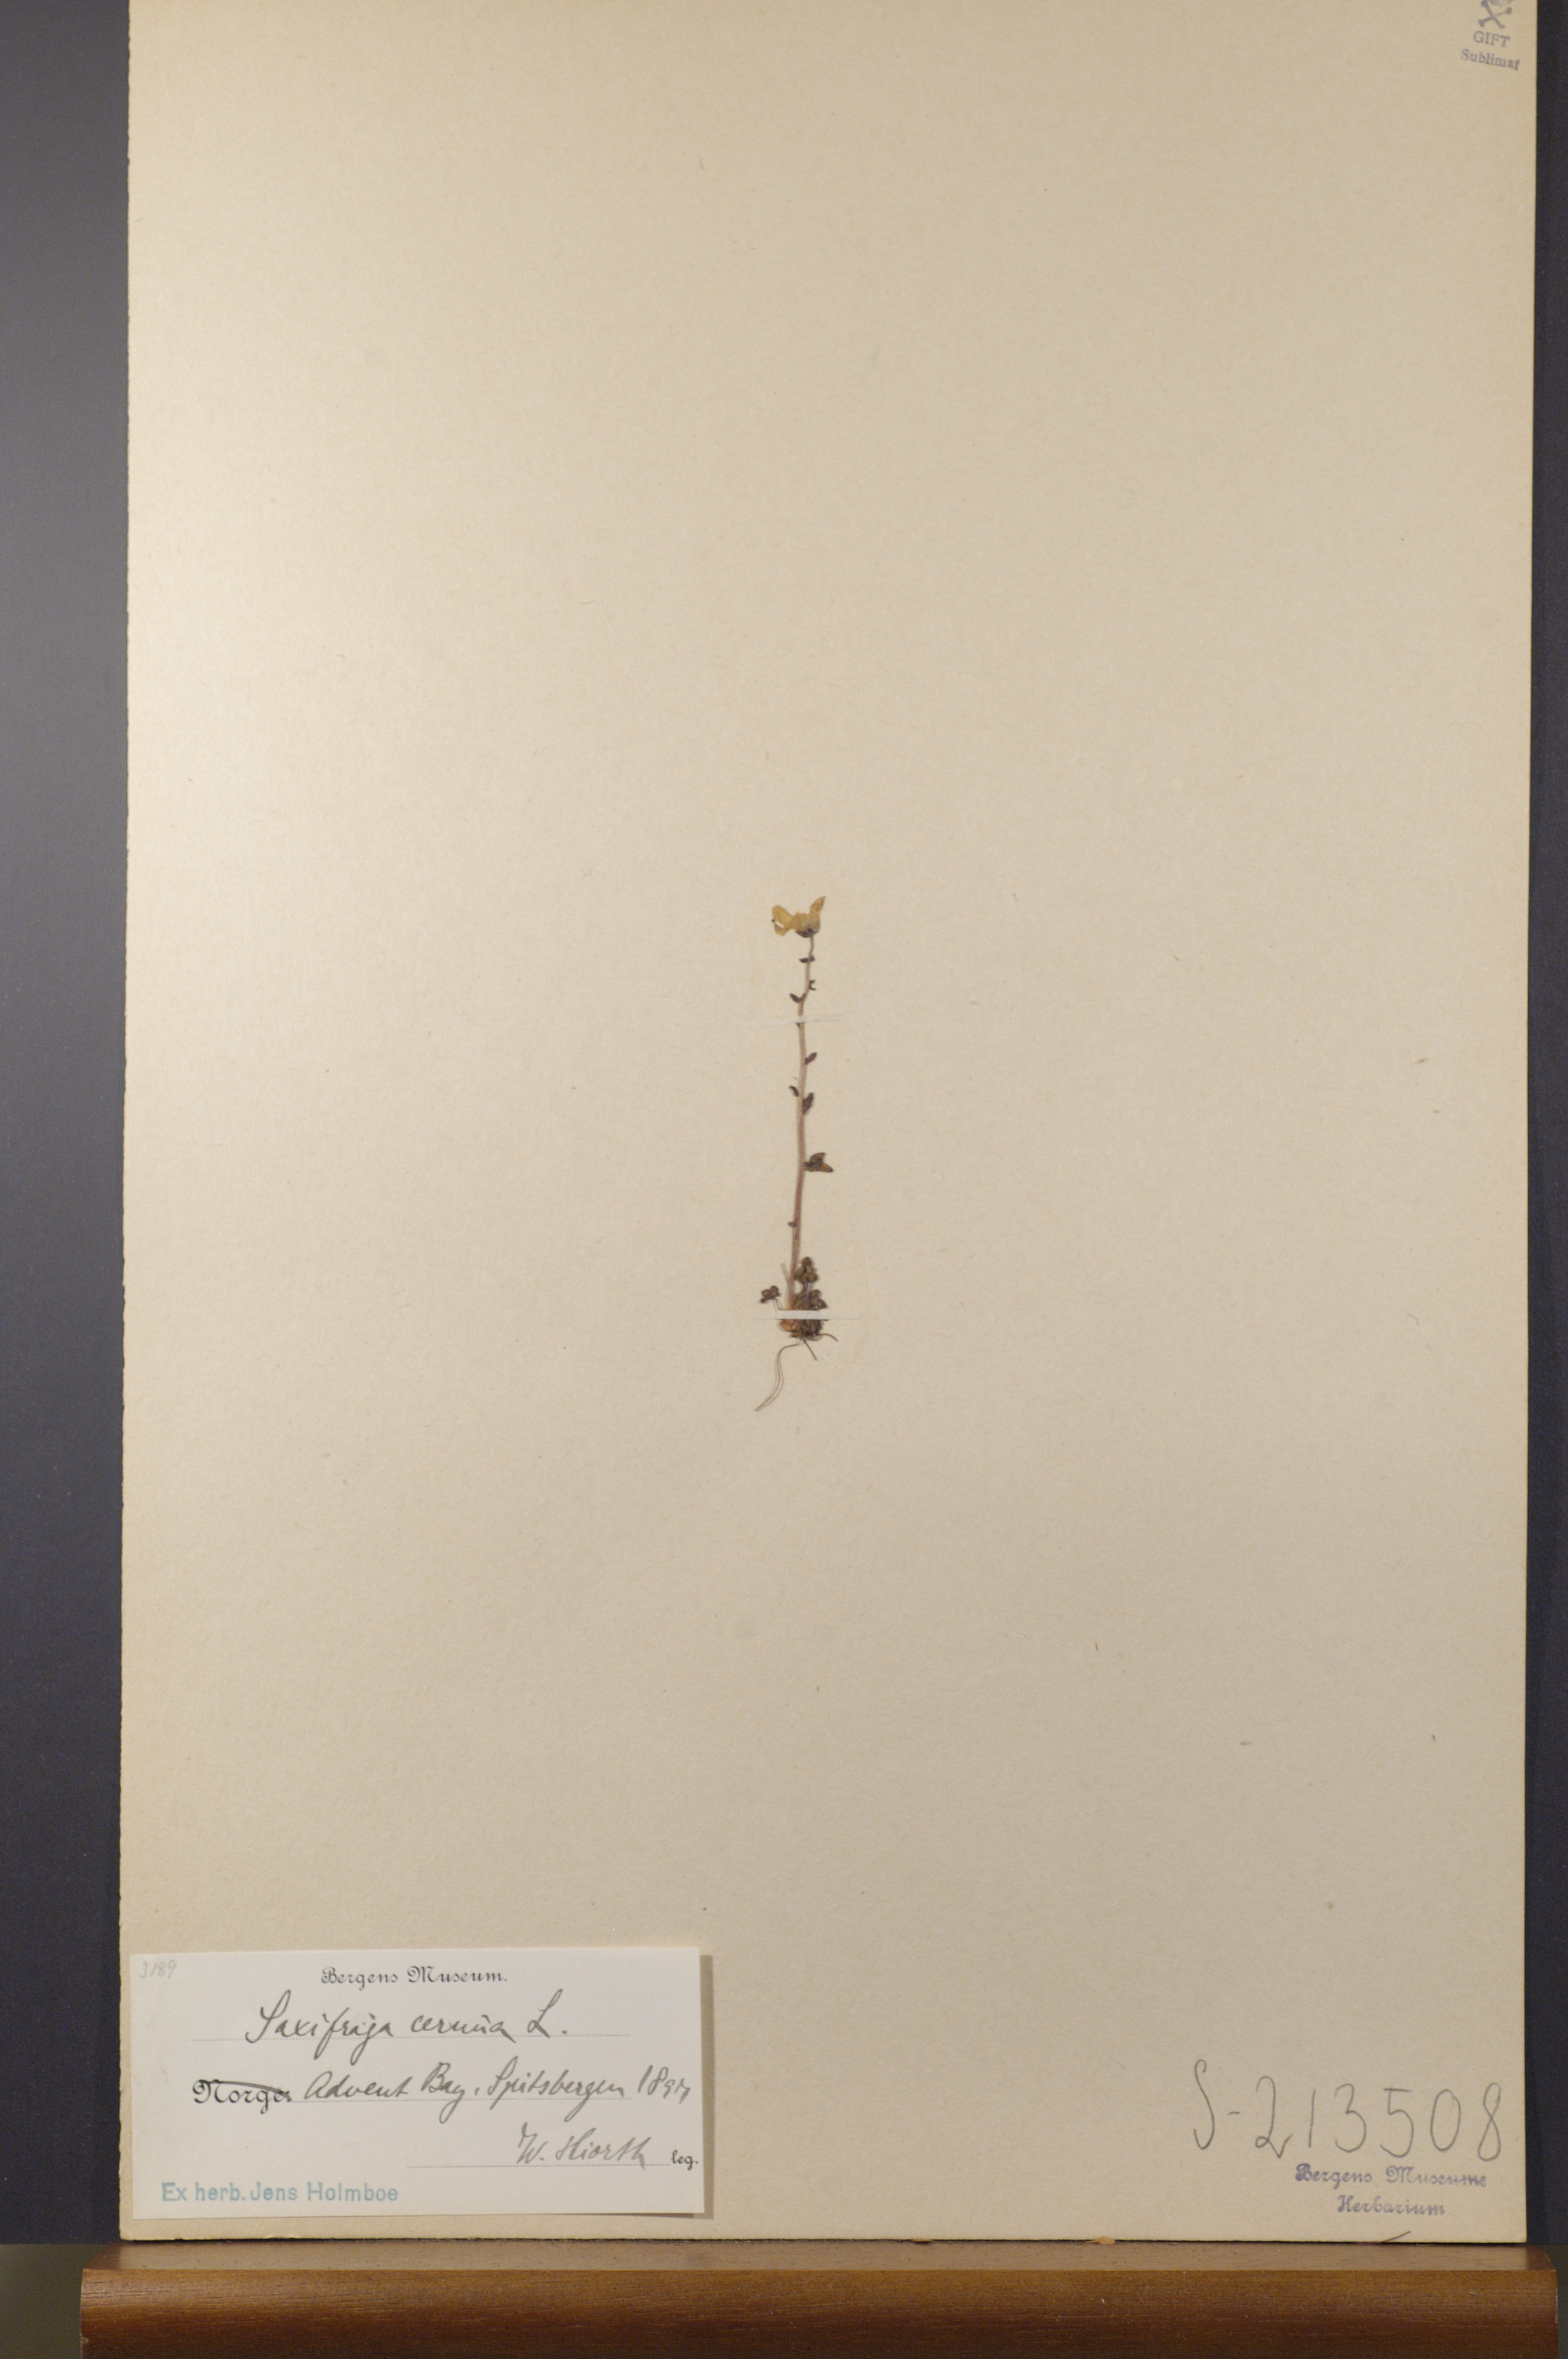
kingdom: Plantae
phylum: Tracheophyta
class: Magnoliopsida
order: Saxifragales
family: Saxifragaceae
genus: Saxifraga
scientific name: Saxifraga cernua
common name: Drooping saxifrage
